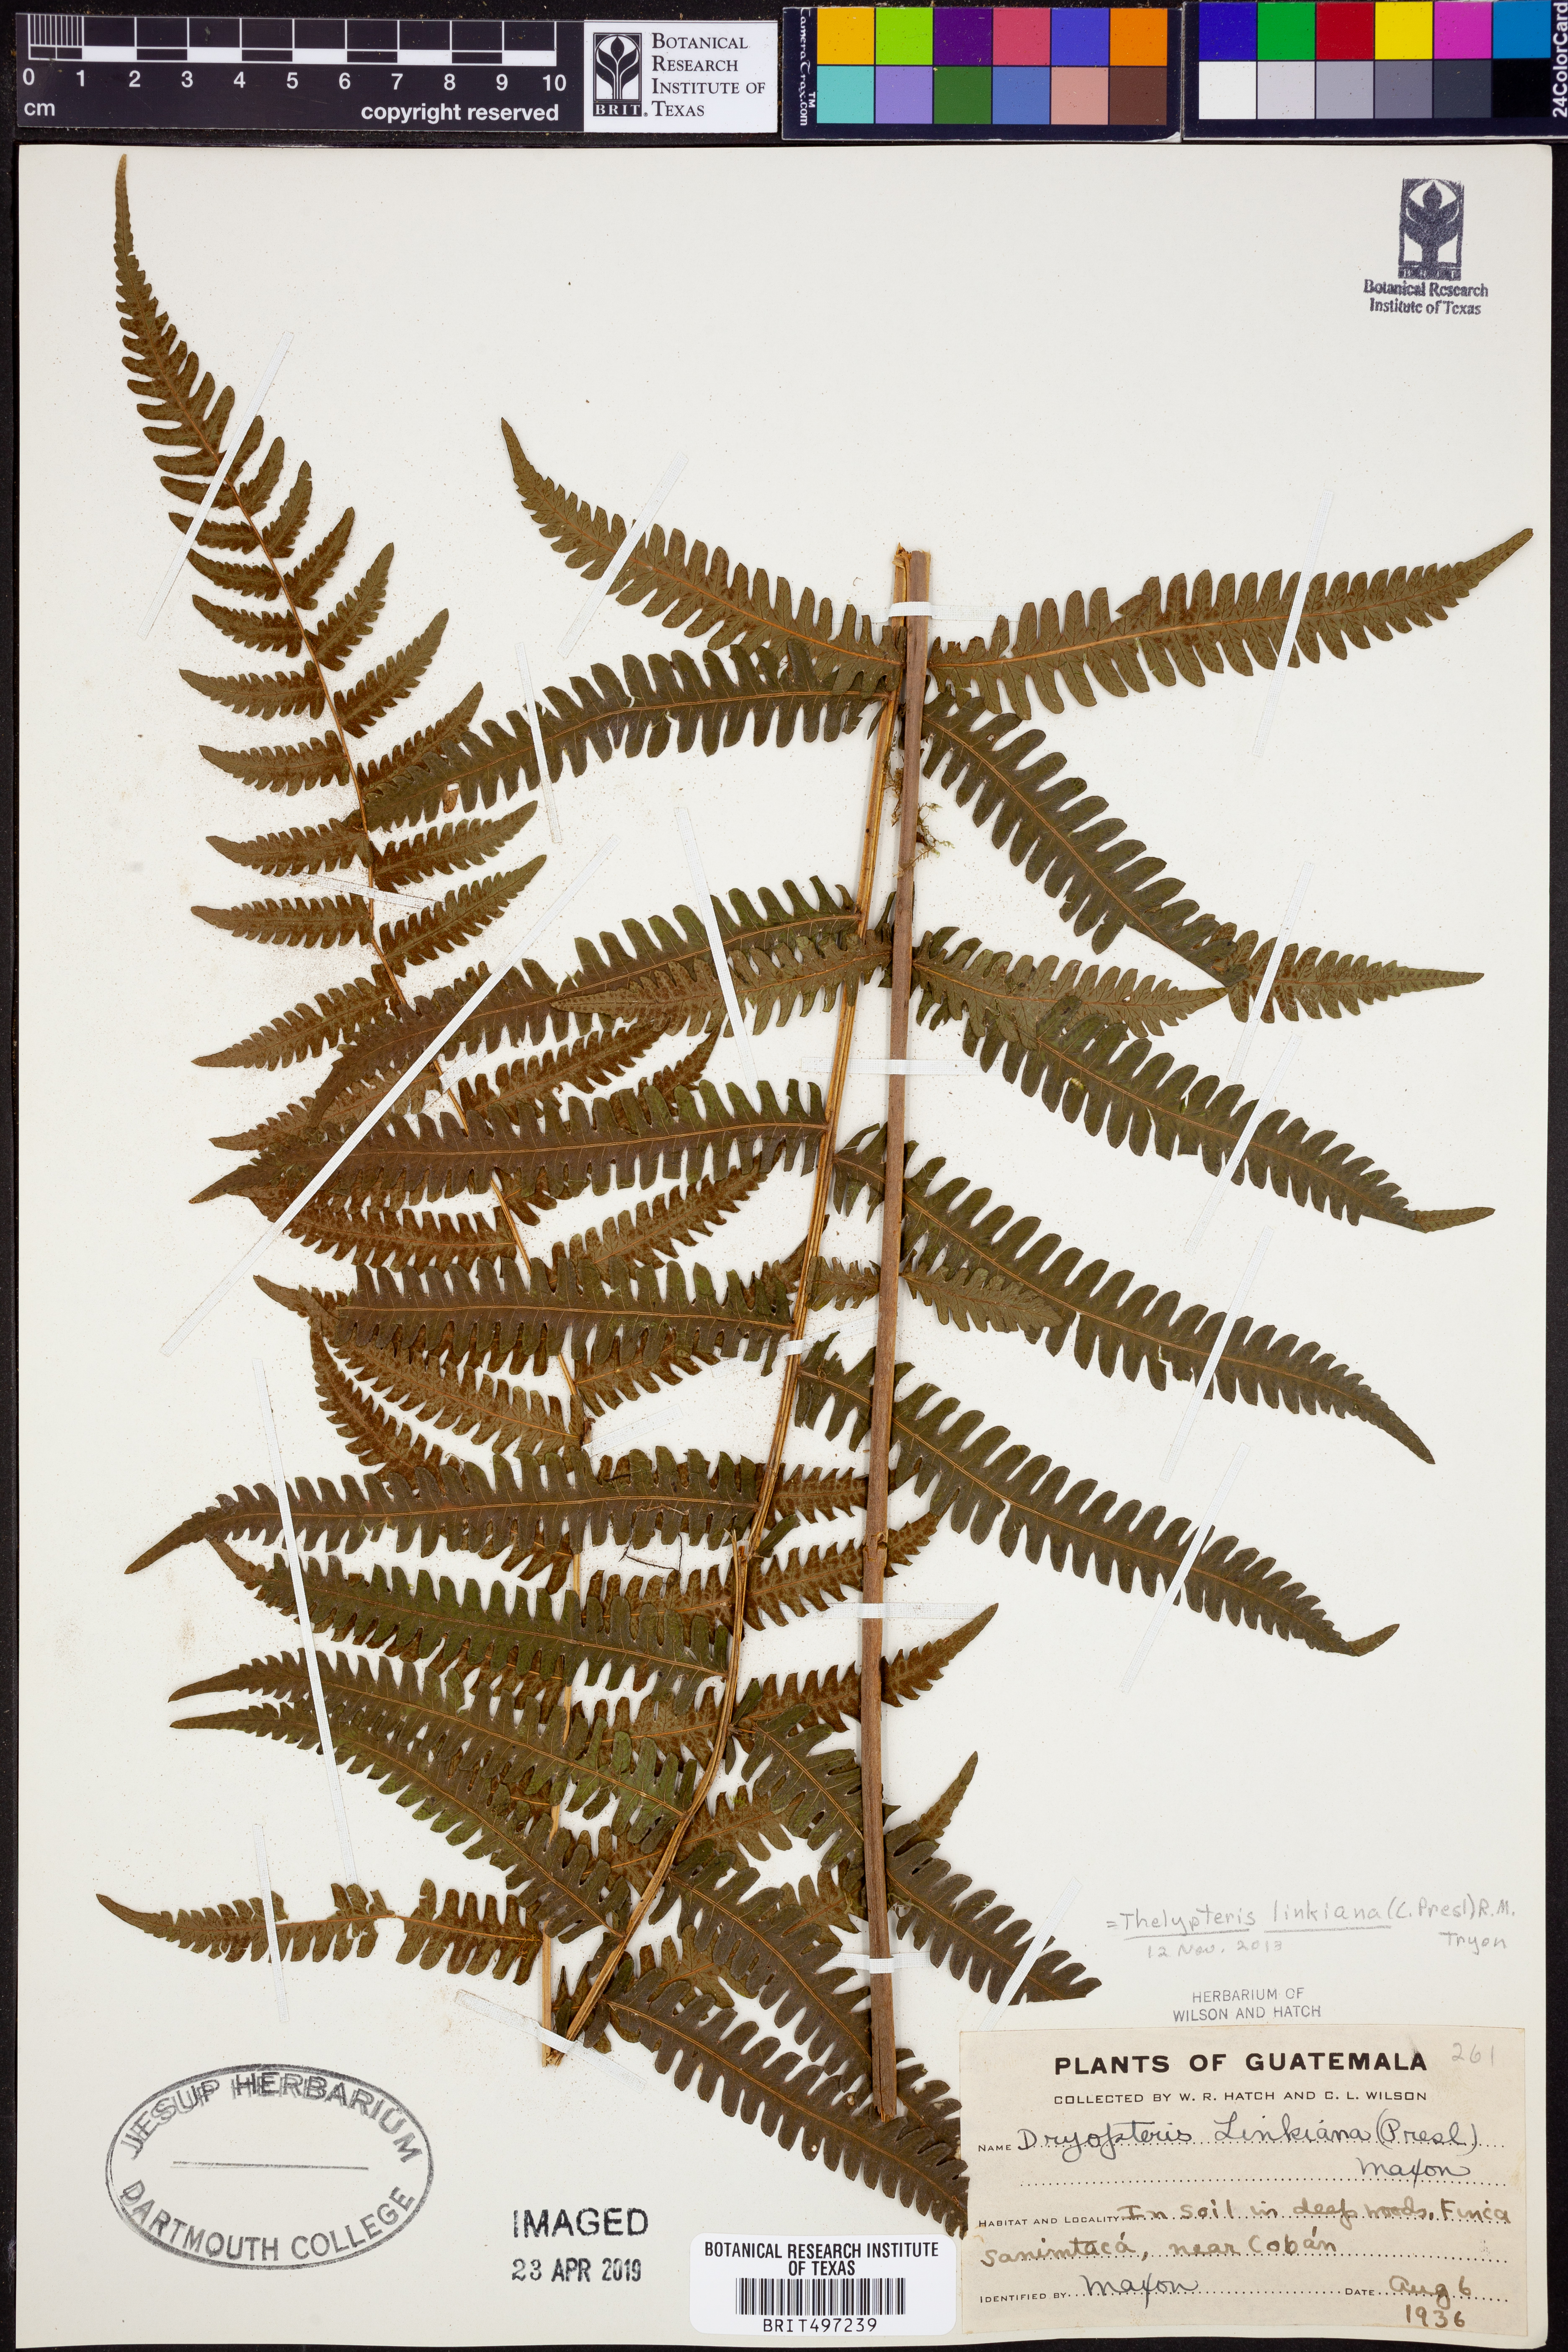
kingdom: Plantae
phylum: Tracheophyta
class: Polypodiopsida
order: Polypodiales
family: Thelypteridaceae
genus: Amauropelta
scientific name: Amauropelta diplazioides
